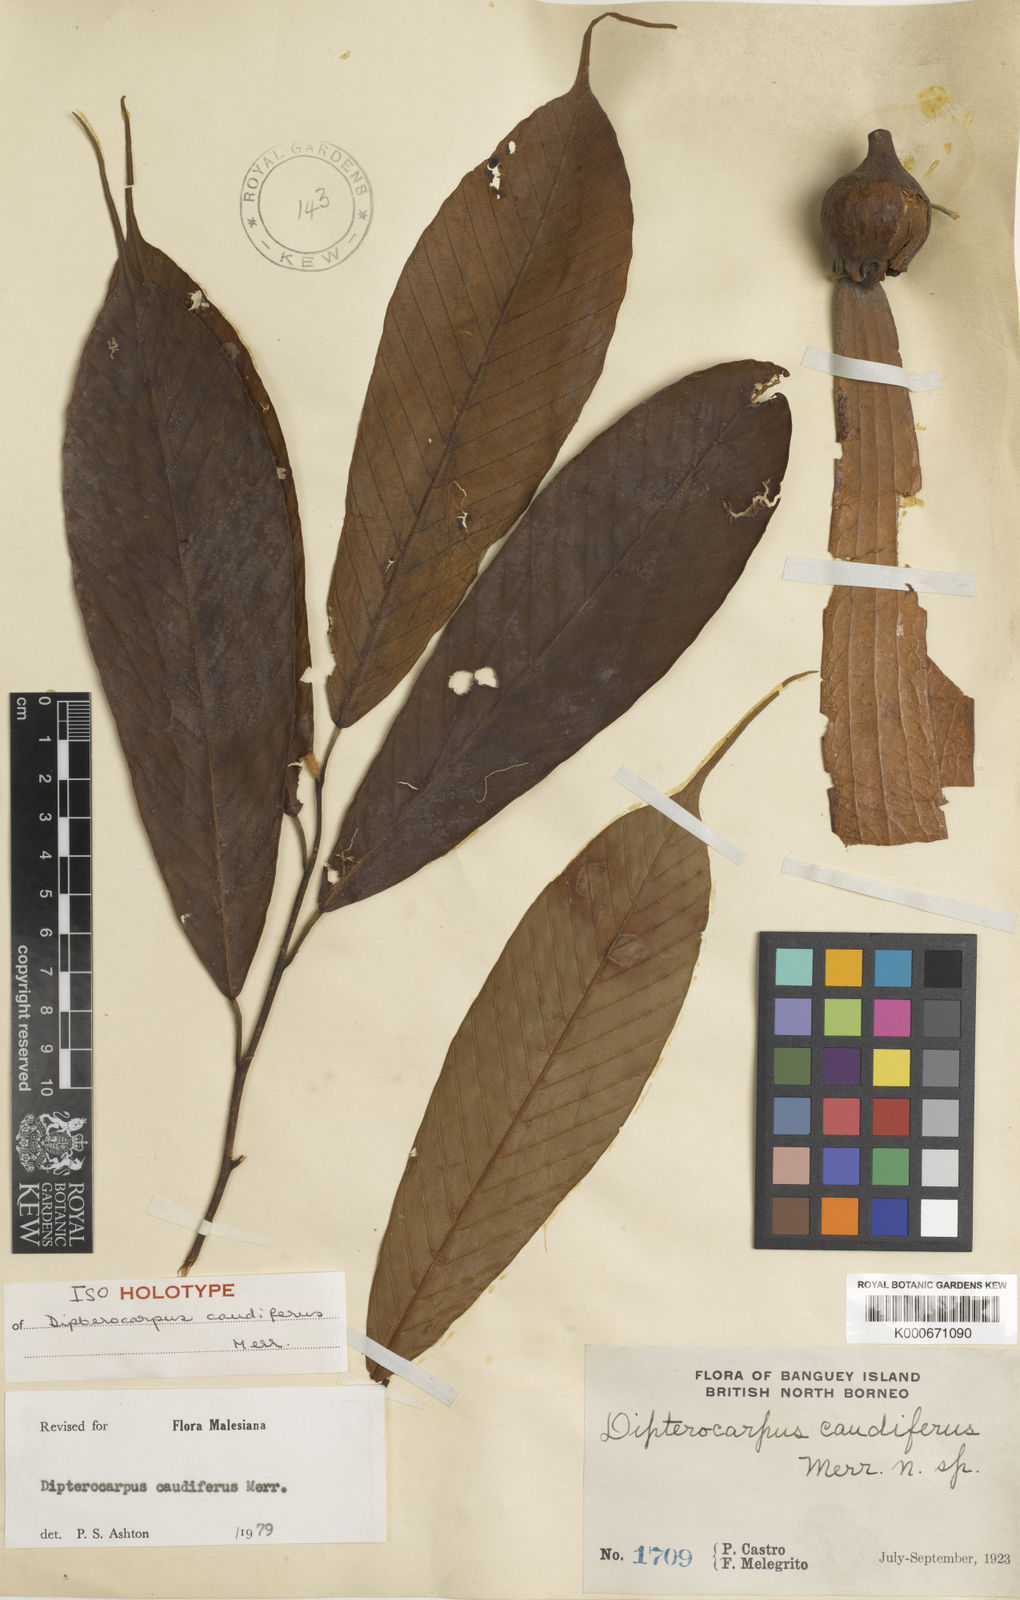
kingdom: Plantae
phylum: Tracheophyta
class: Magnoliopsida
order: Malvales
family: Dipterocarpaceae
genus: Dipterocarpus
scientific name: Dipterocarpus
